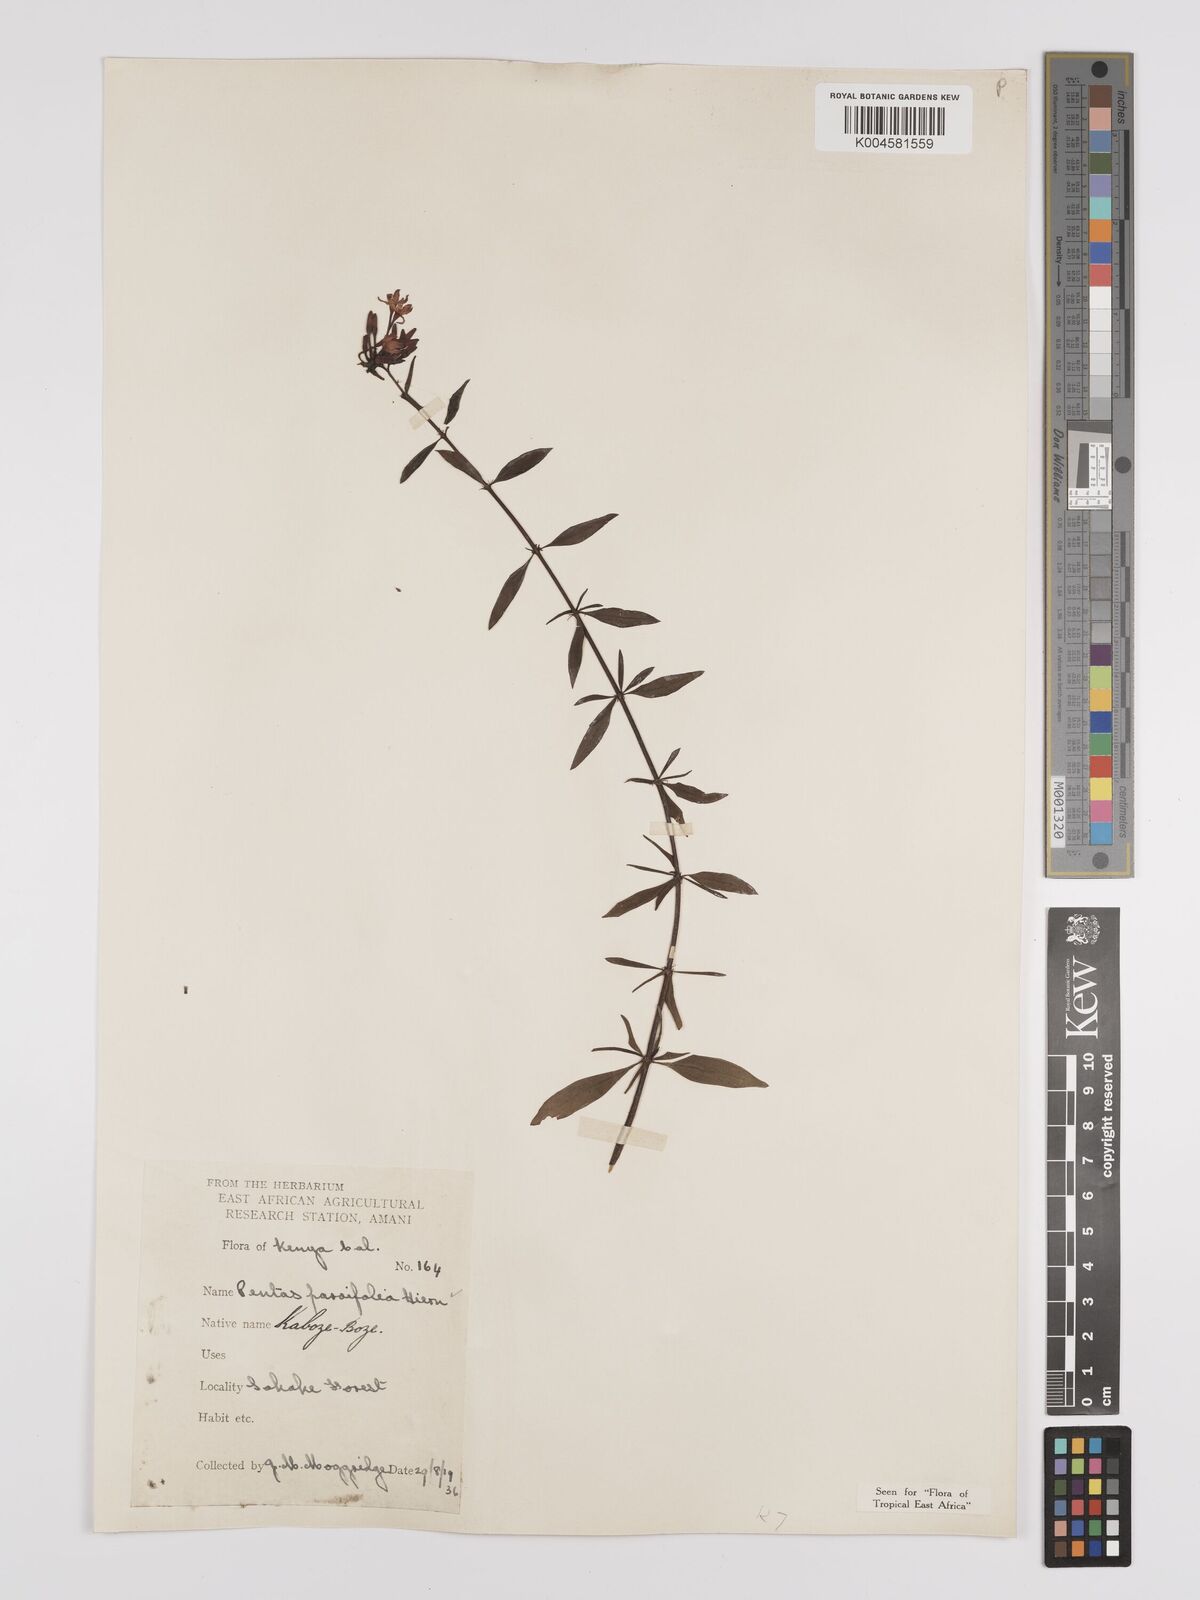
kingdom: Plantae
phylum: Tracheophyta
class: Magnoliopsida
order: Gentianales
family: Rubiaceae
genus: Rhodopentas
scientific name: Rhodopentas parvifolia
